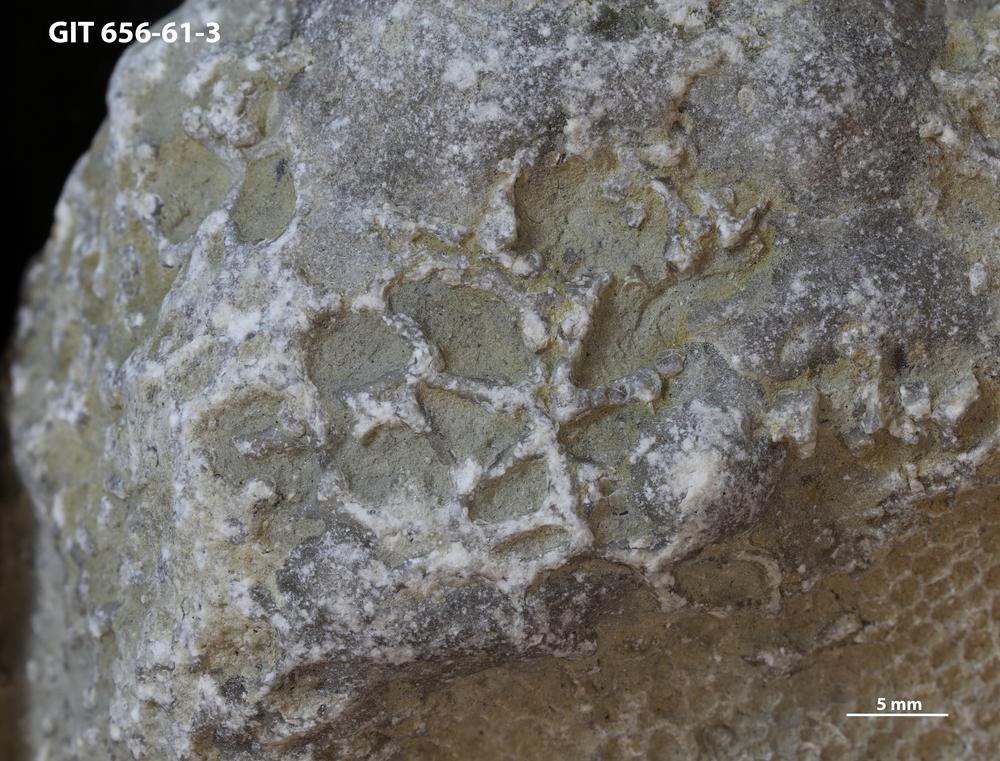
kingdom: Animalia
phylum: Cnidaria
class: Anthozoa
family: Auloporidae
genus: Aulopora
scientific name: Aulopora
